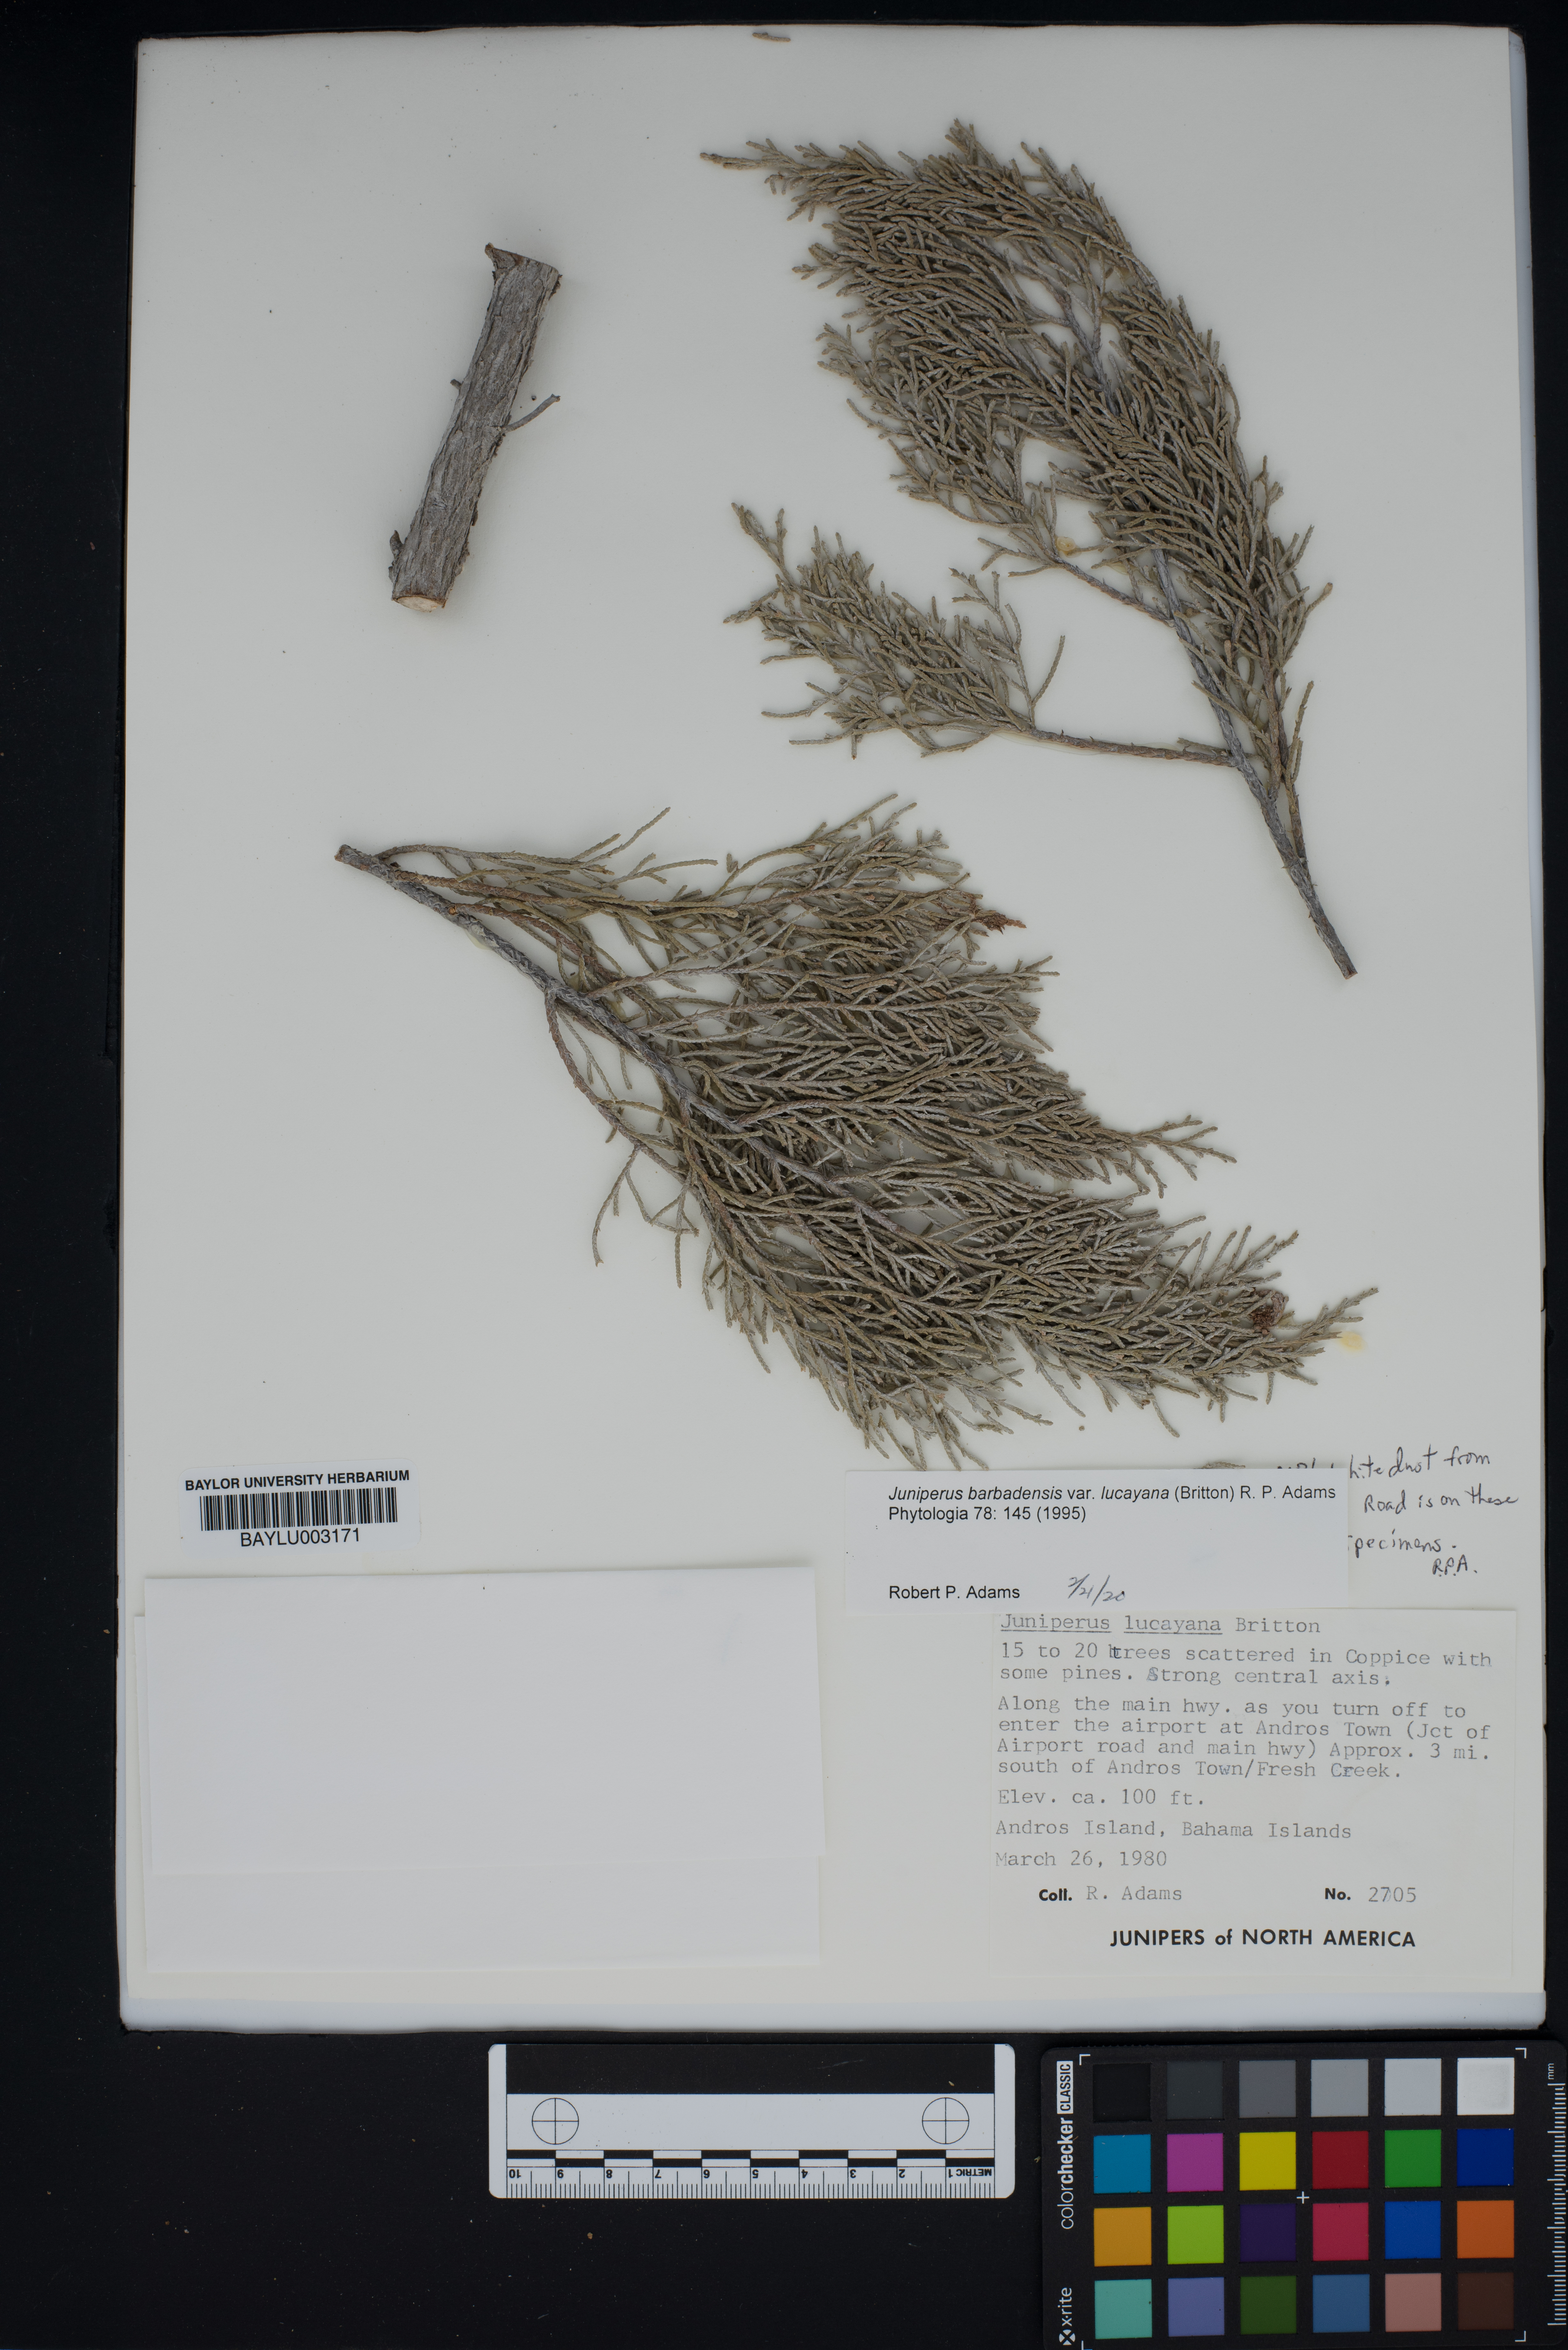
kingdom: Plantae
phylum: Tracheophyta
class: Pinopsida
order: Pinales
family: Cupressaceae
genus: Juniperus
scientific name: Juniperus barbadensis
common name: West indies juniper
